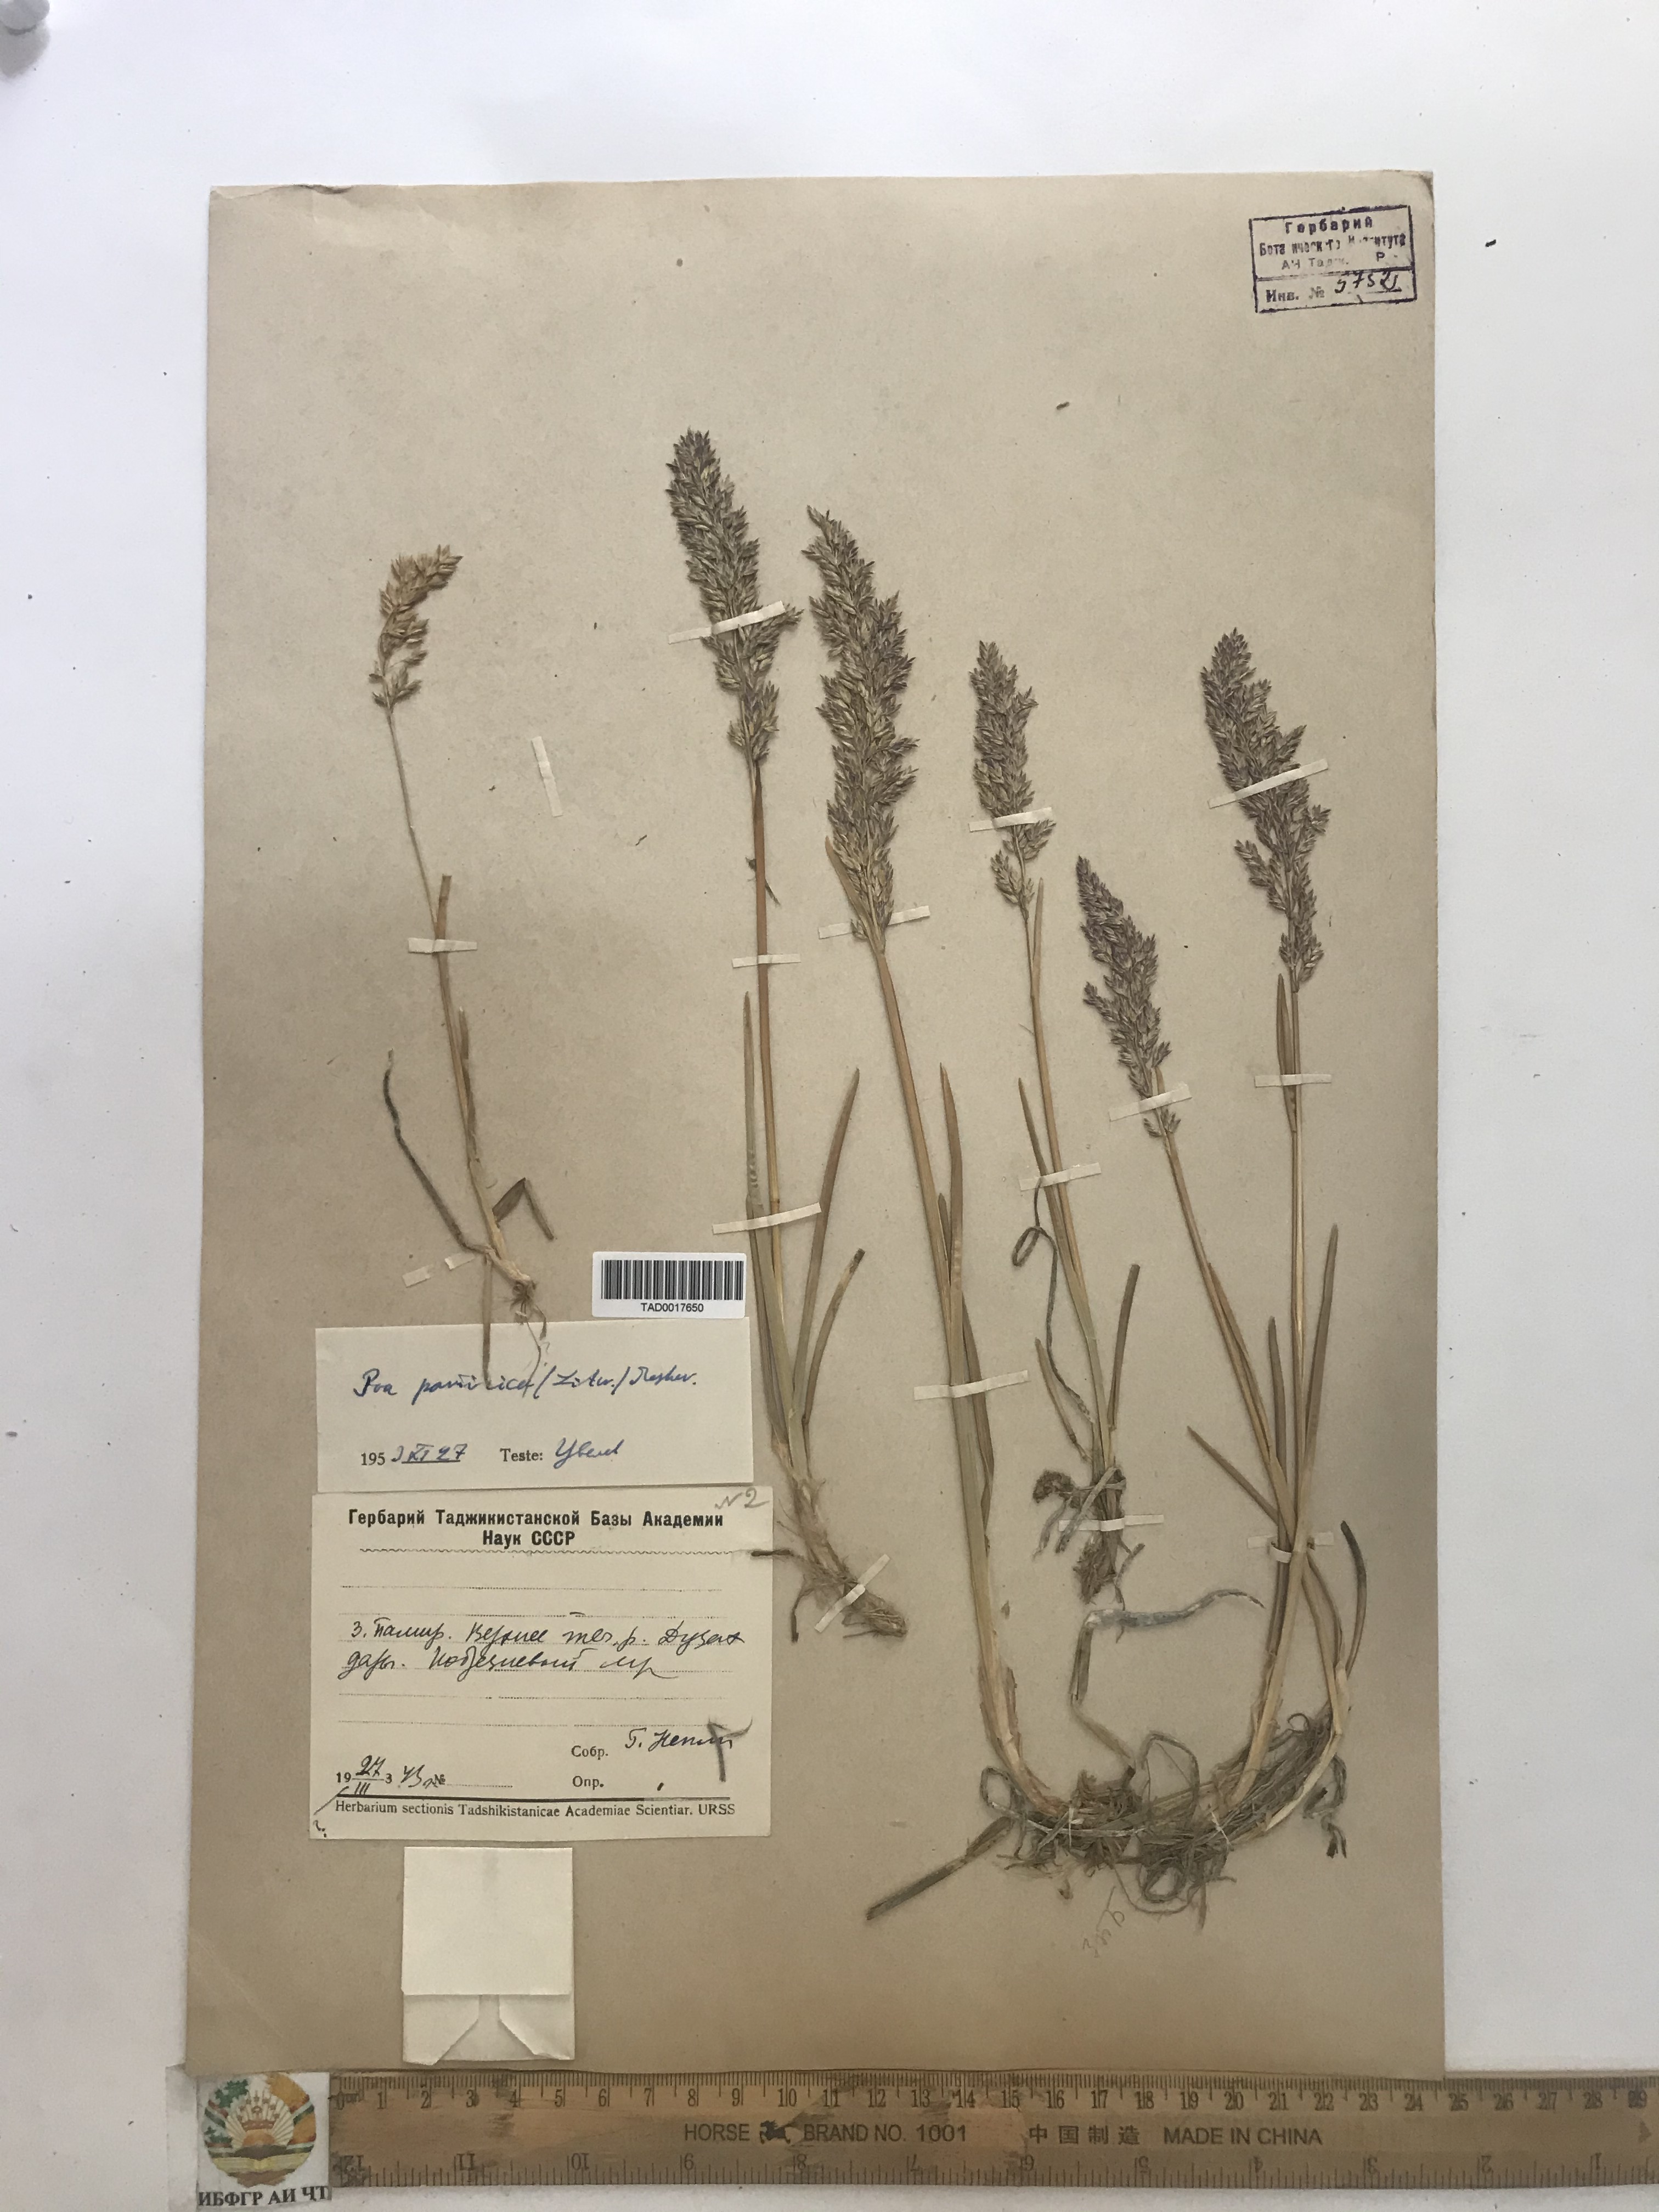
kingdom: Plantae
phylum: Tracheophyta
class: Liliopsida
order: Poales
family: Poaceae
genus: Poa
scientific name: Poa tianschanica
